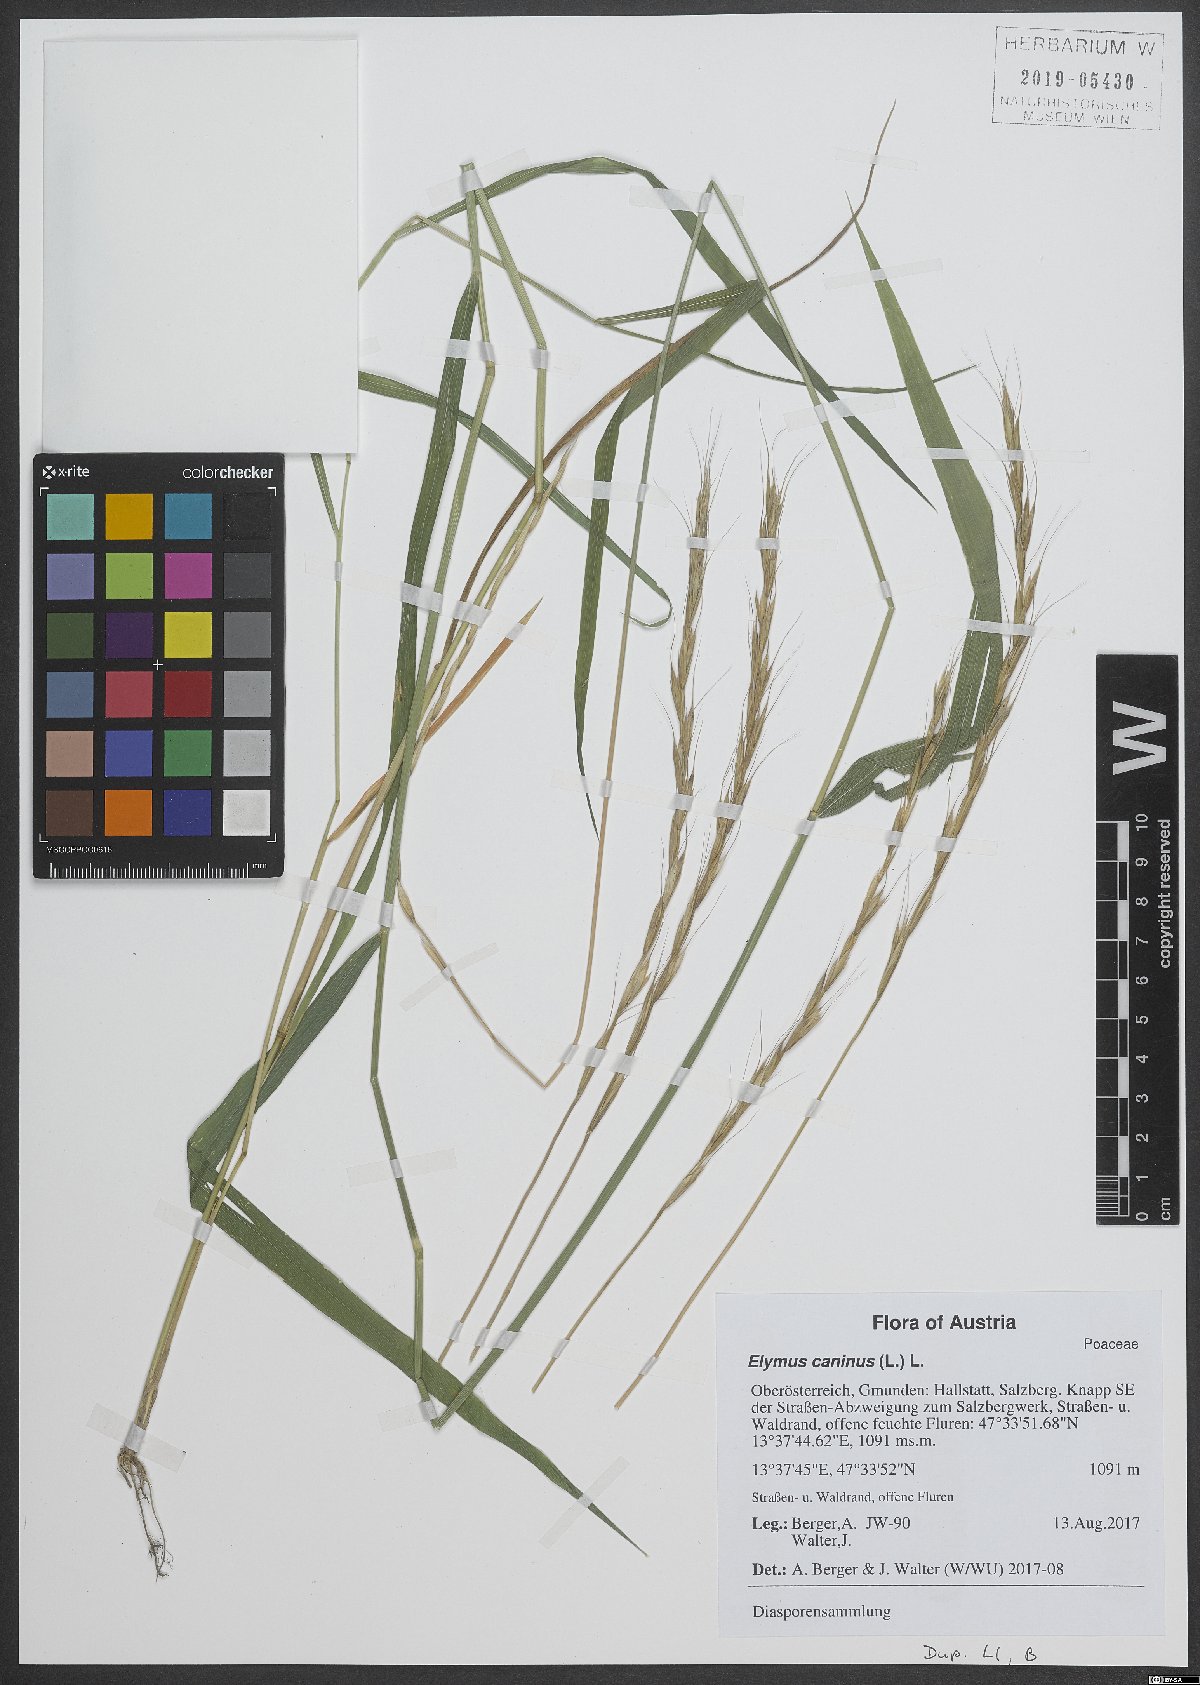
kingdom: Plantae
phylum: Tracheophyta
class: Liliopsida
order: Poales
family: Poaceae
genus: Elymus
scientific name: Elymus caninus
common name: Bearded couch
